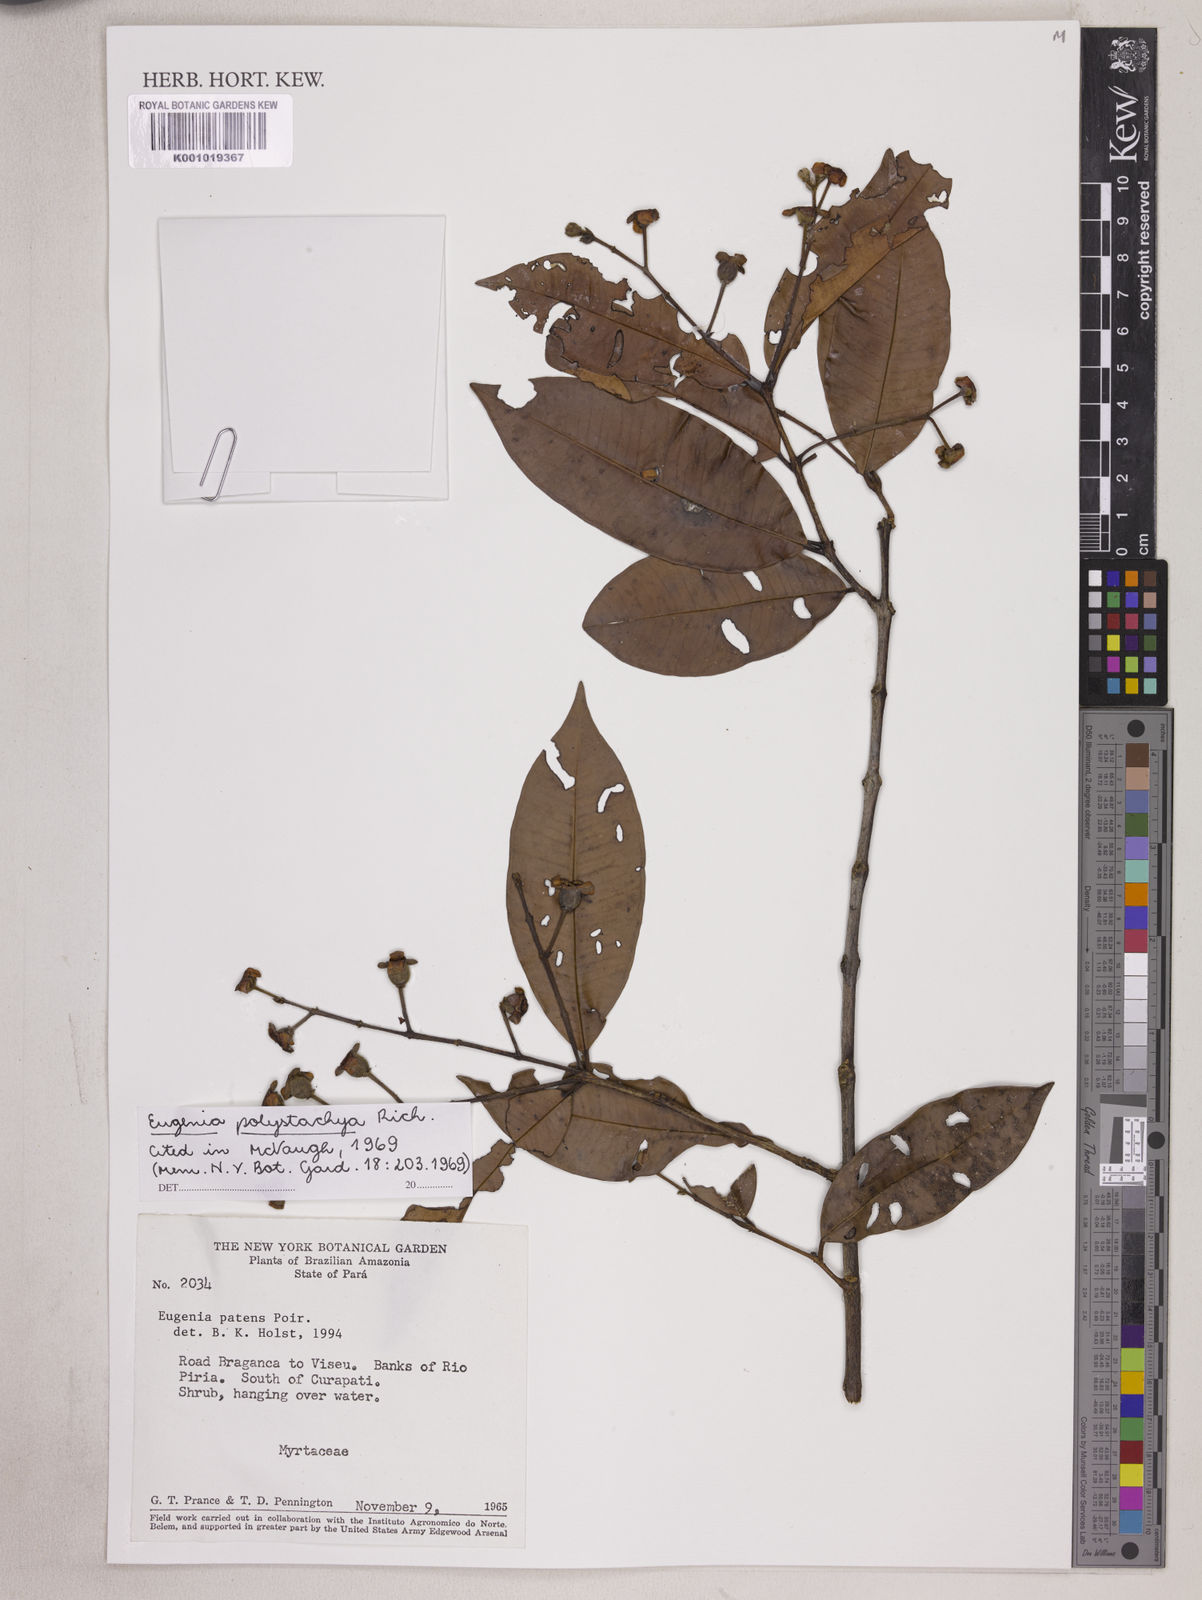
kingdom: Plantae
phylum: Tracheophyta
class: Magnoliopsida
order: Myrtales
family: Myrtaceae
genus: Eugenia
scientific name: Eugenia polystachya
